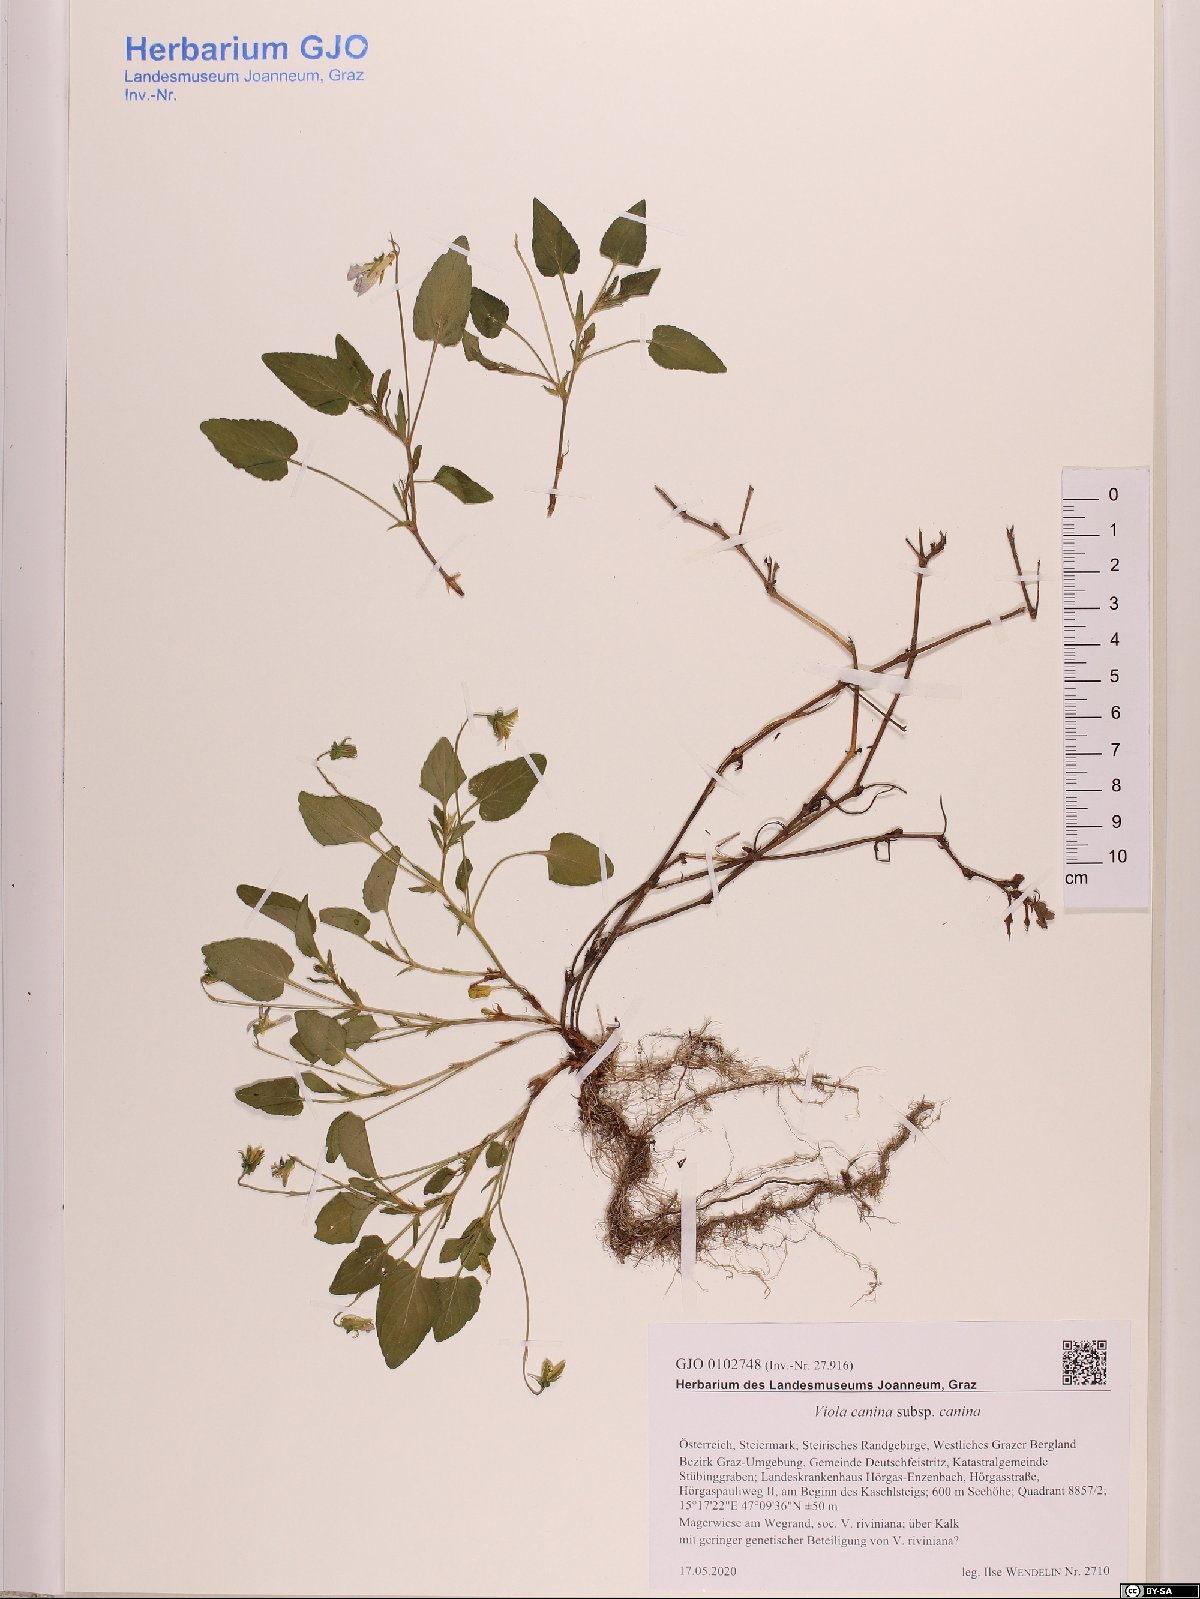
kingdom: Plantae
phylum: Tracheophyta
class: Magnoliopsida
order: Malpighiales
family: Violaceae
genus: Viola
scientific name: Viola canina
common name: Heath dog-violet
